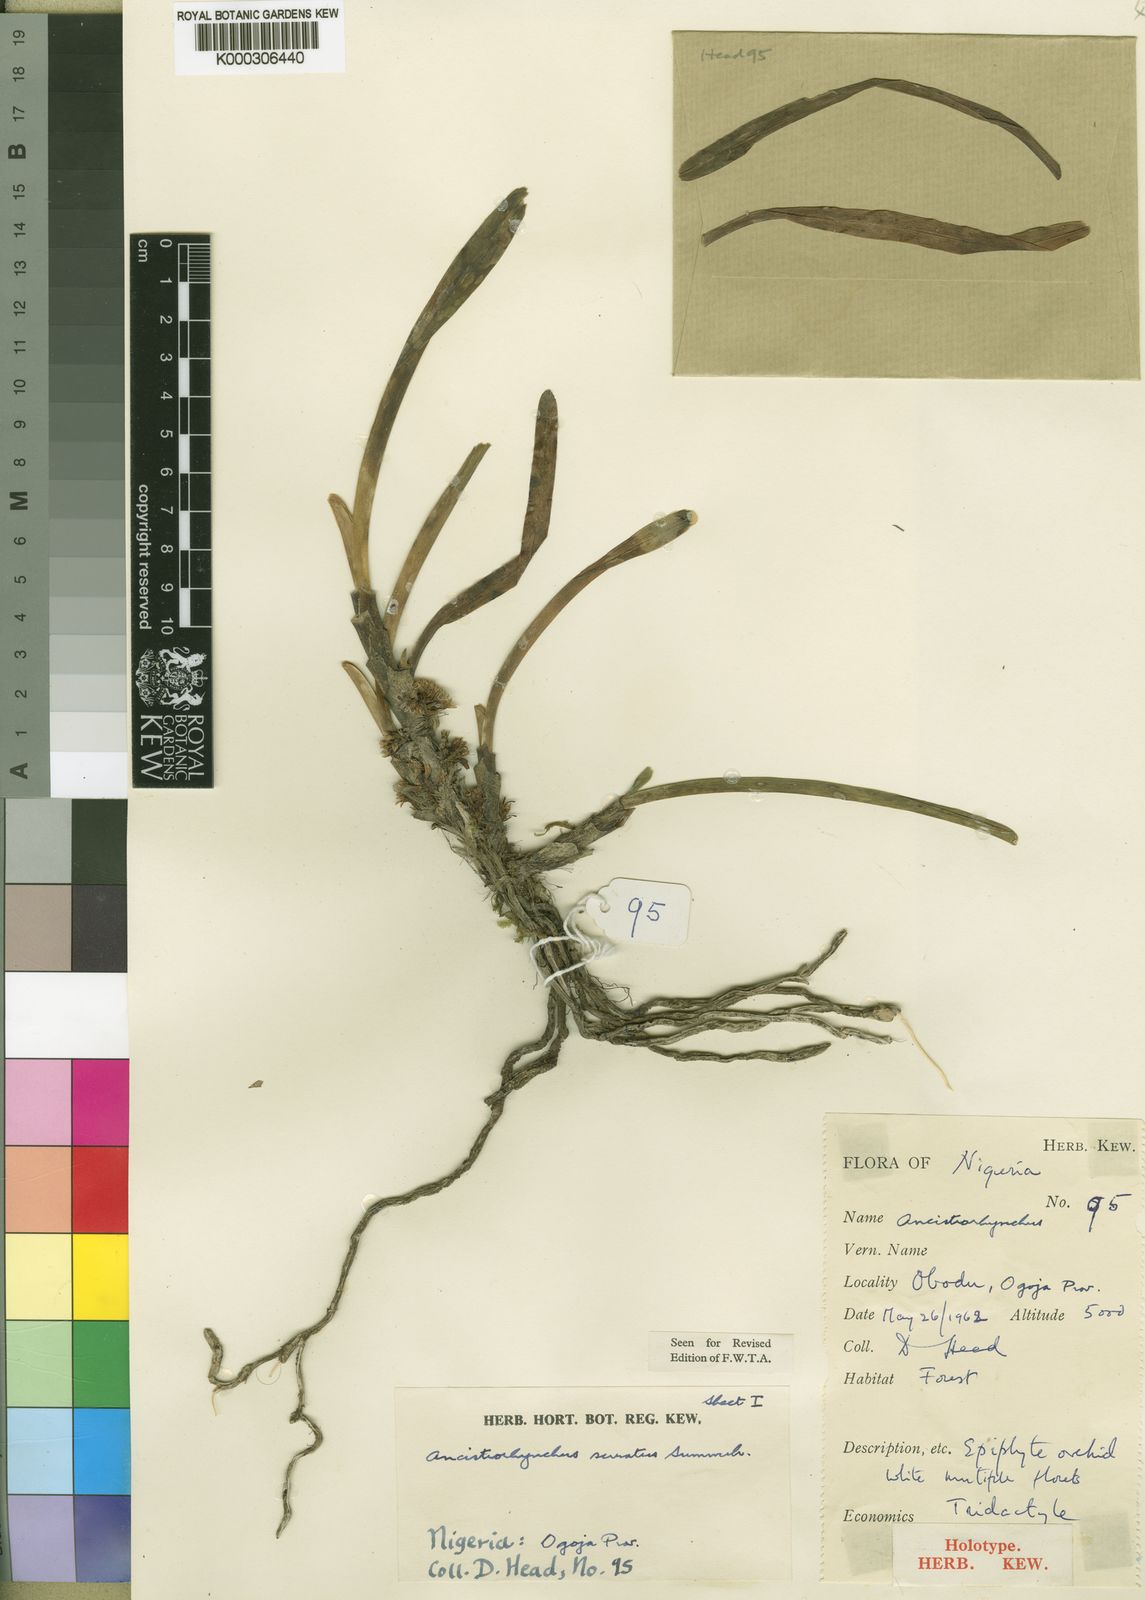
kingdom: Plantae
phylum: Tracheophyta
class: Liliopsida
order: Asparagales
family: Orchidaceae
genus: Ancistrorhynchus
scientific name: Ancistrorhynchus serratus
